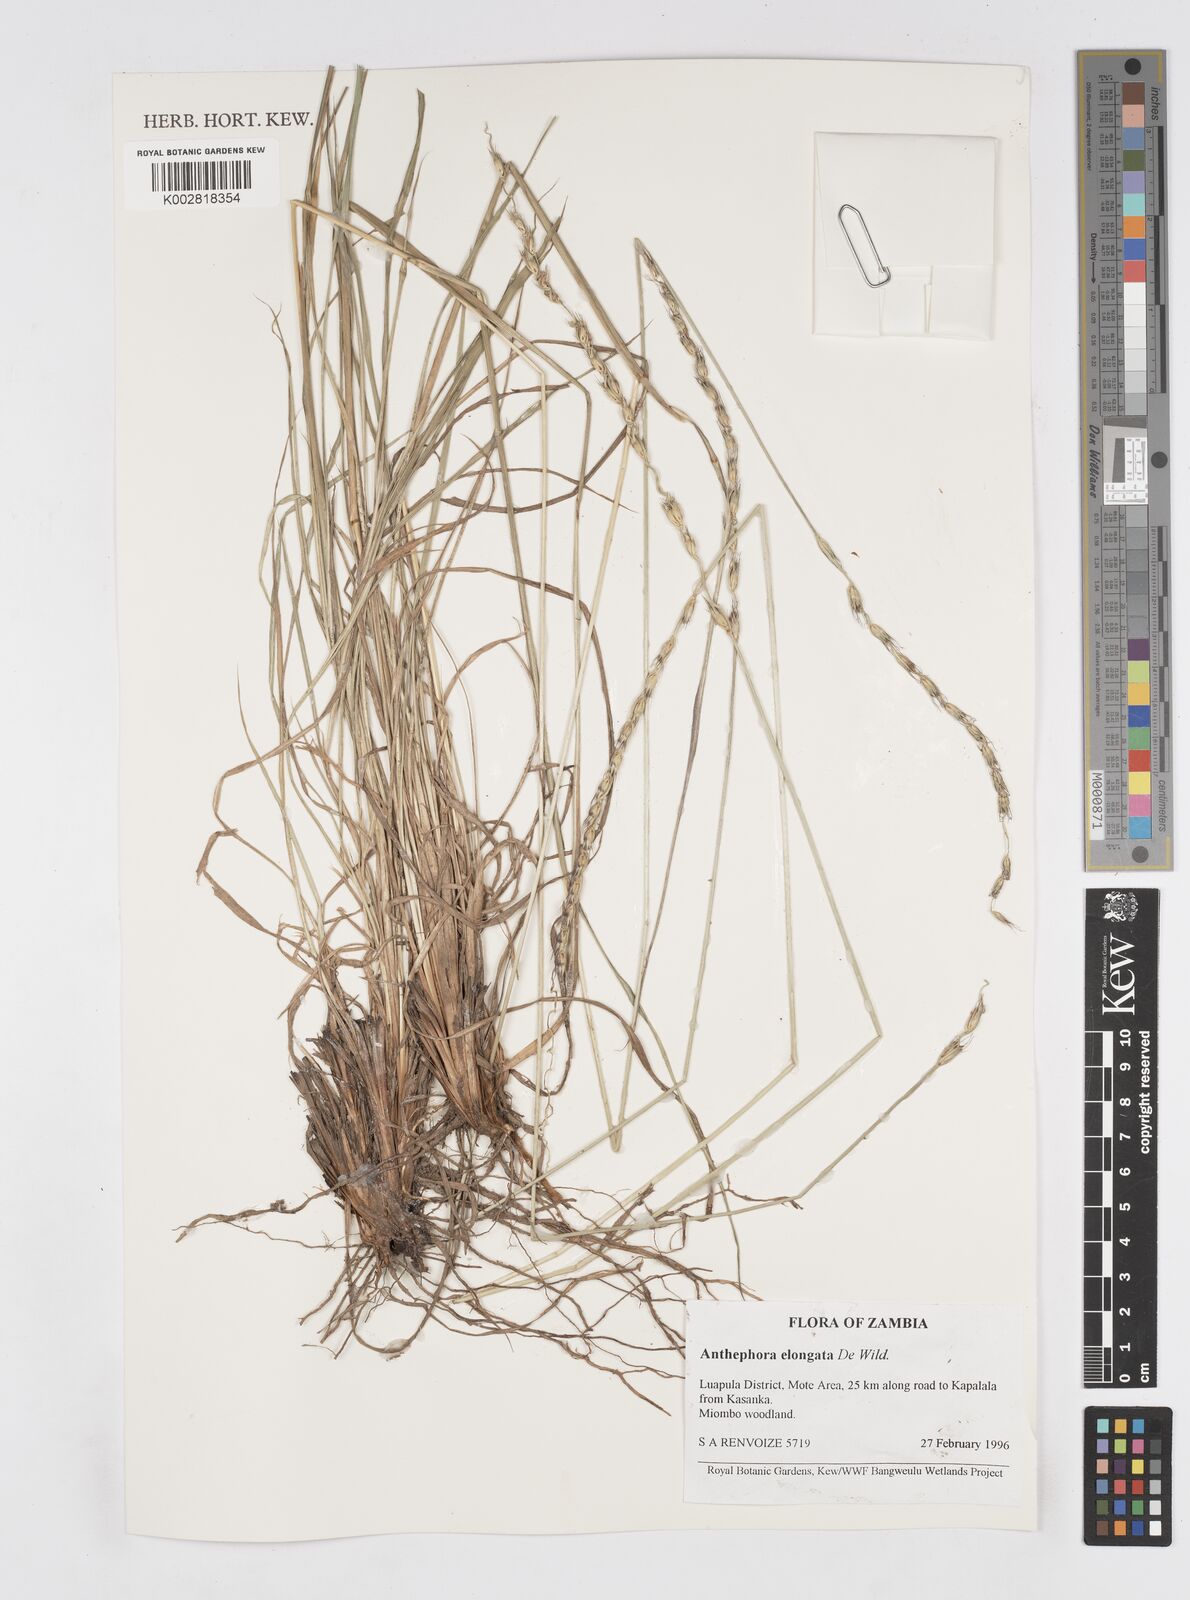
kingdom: Plantae
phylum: Tracheophyta
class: Liliopsida
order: Poales
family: Poaceae
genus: Anthephora
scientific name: Anthephora elongata
